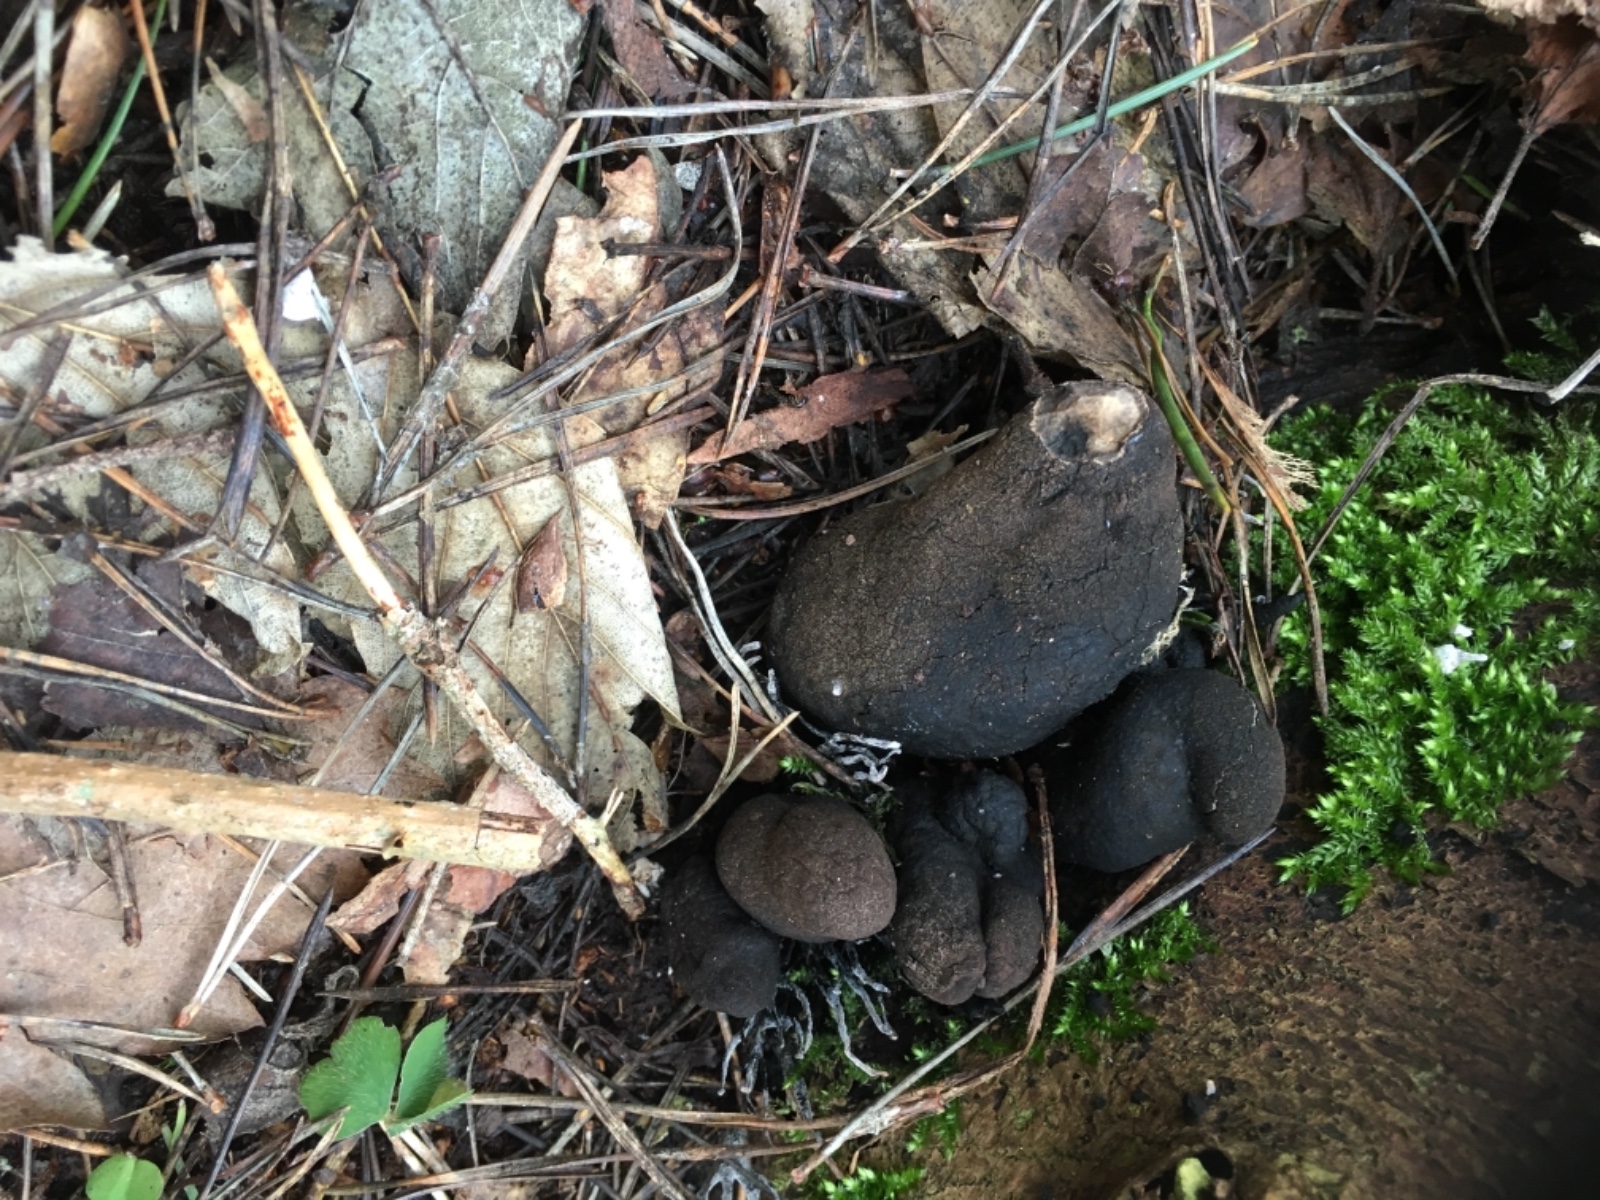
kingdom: Fungi
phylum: Ascomycota
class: Sordariomycetes
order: Xylariales
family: Xylariaceae
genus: Xylaria
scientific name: Xylaria polymorpha
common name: kølle-stødsvamp
